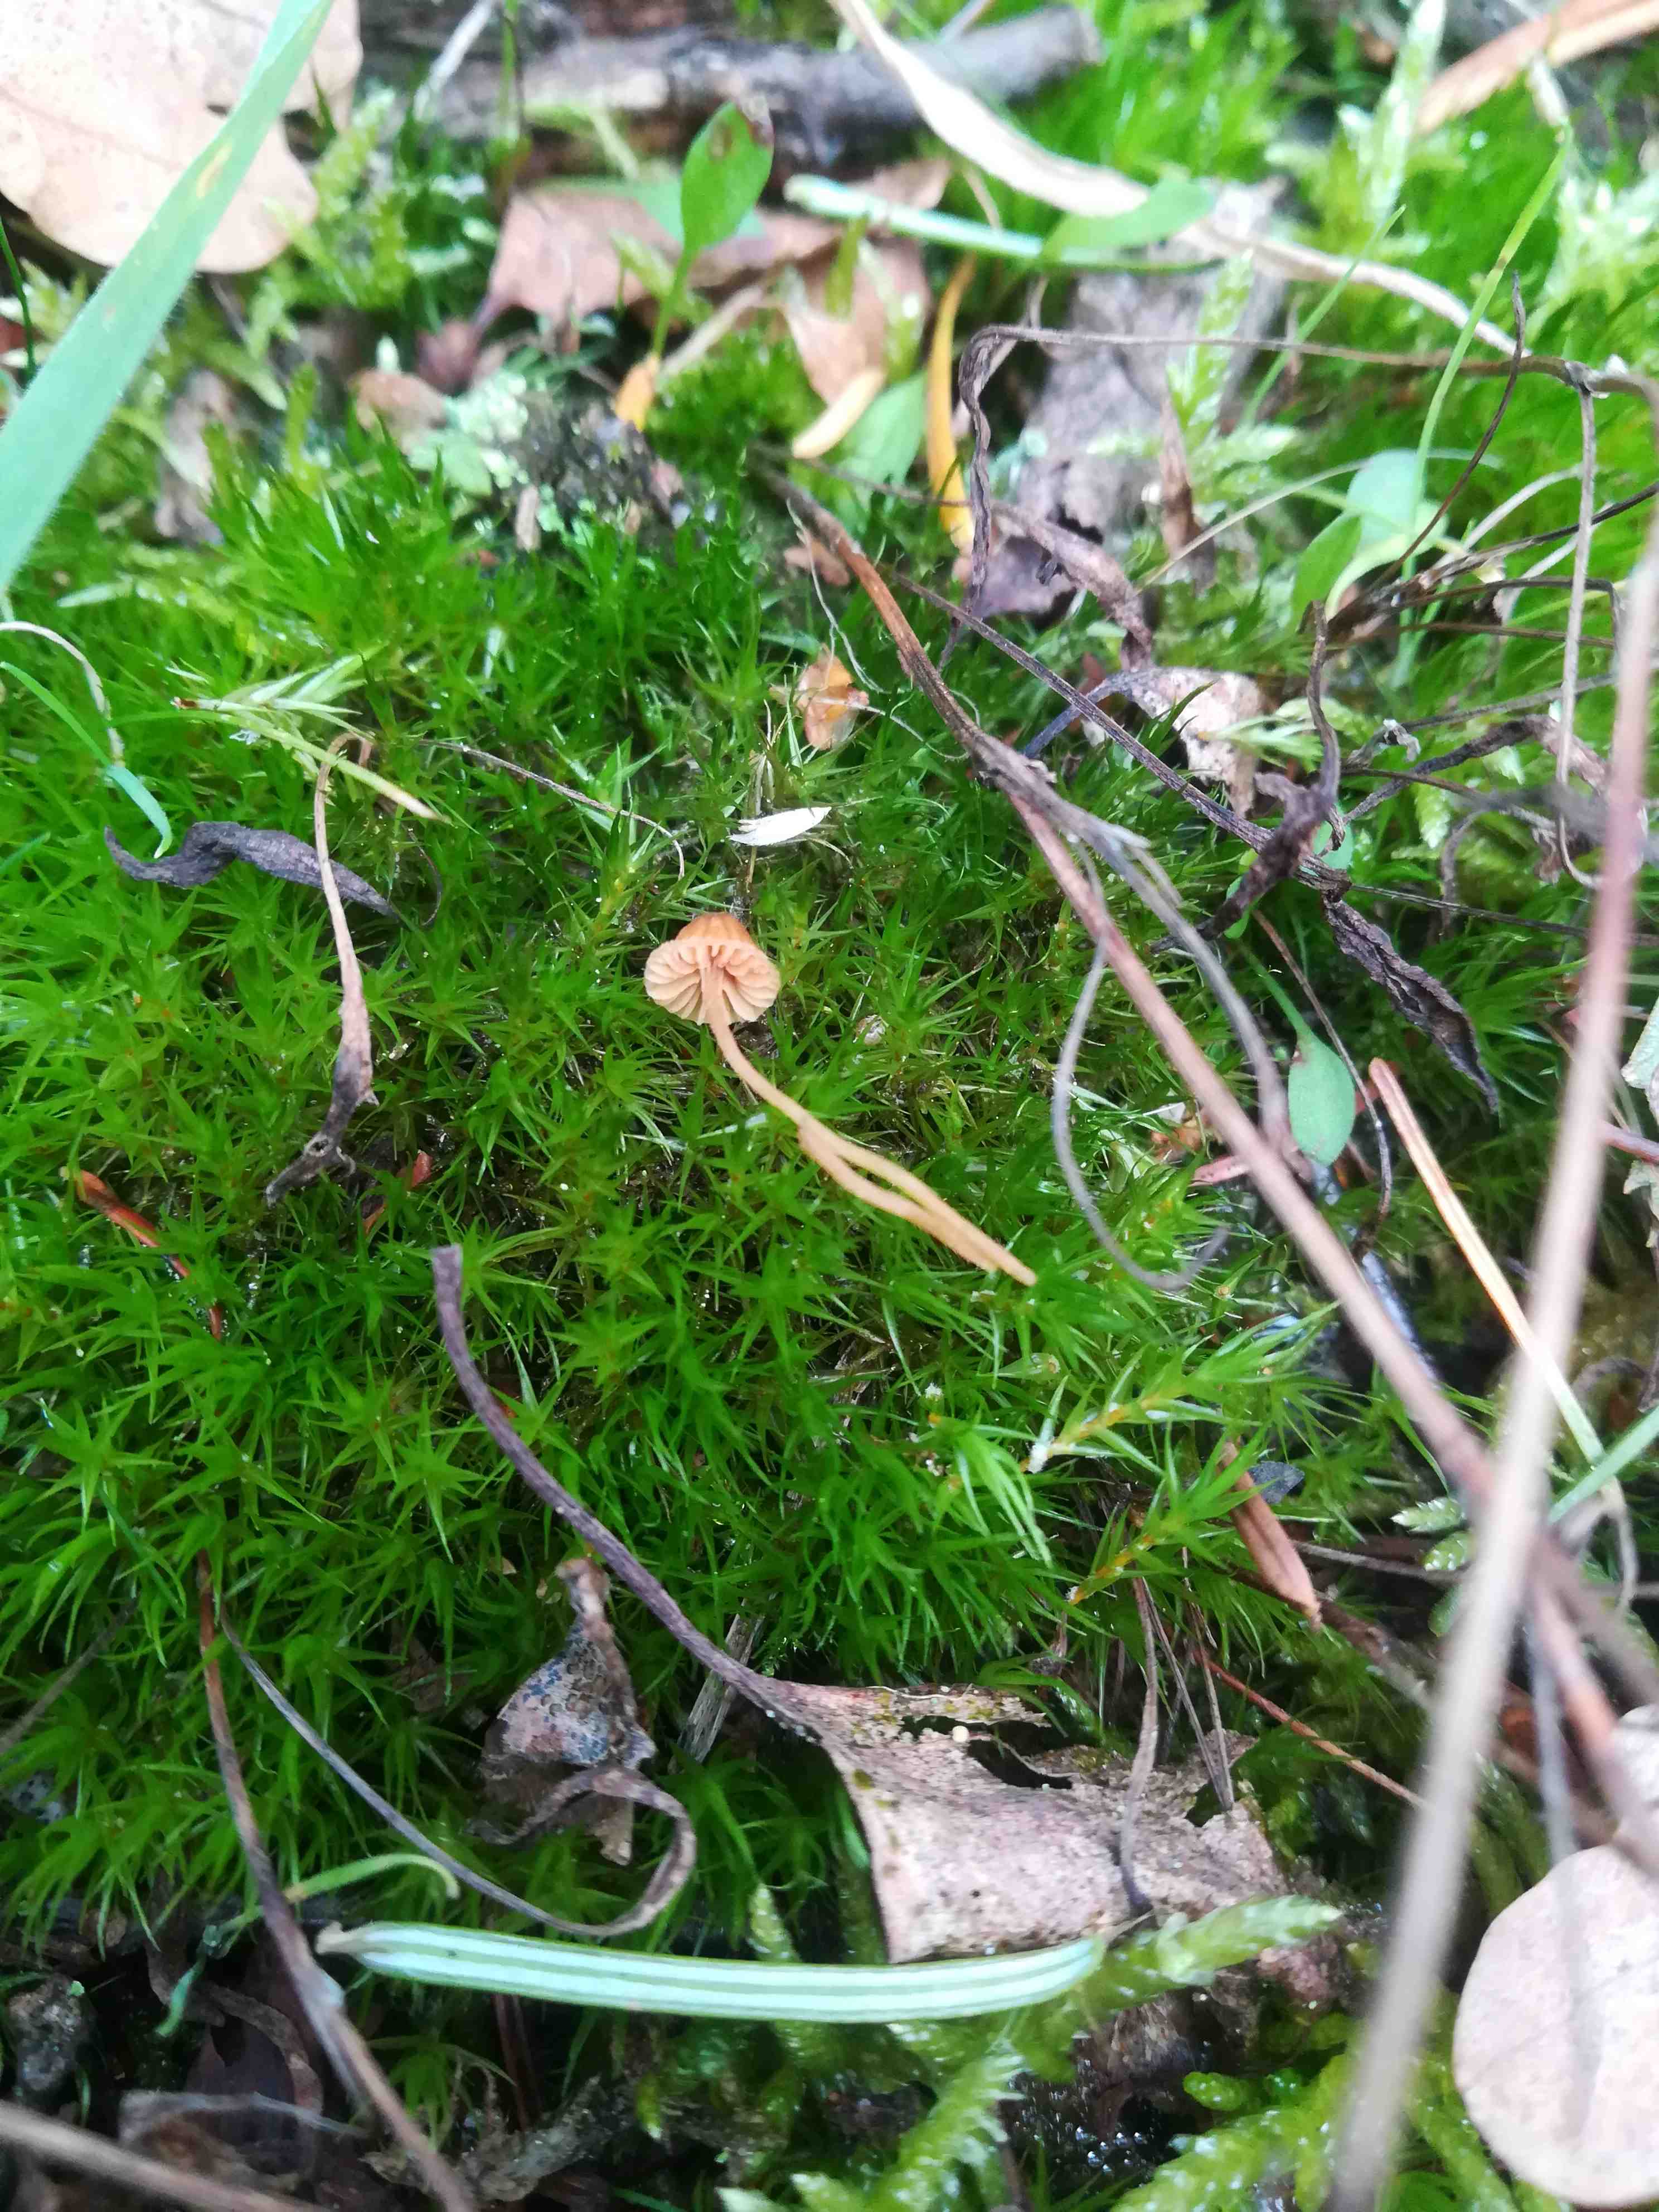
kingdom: Fungi
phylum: Basidiomycota
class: Agaricomycetes
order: Agaricales
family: Hymenogastraceae
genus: Galerina
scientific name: Galerina
